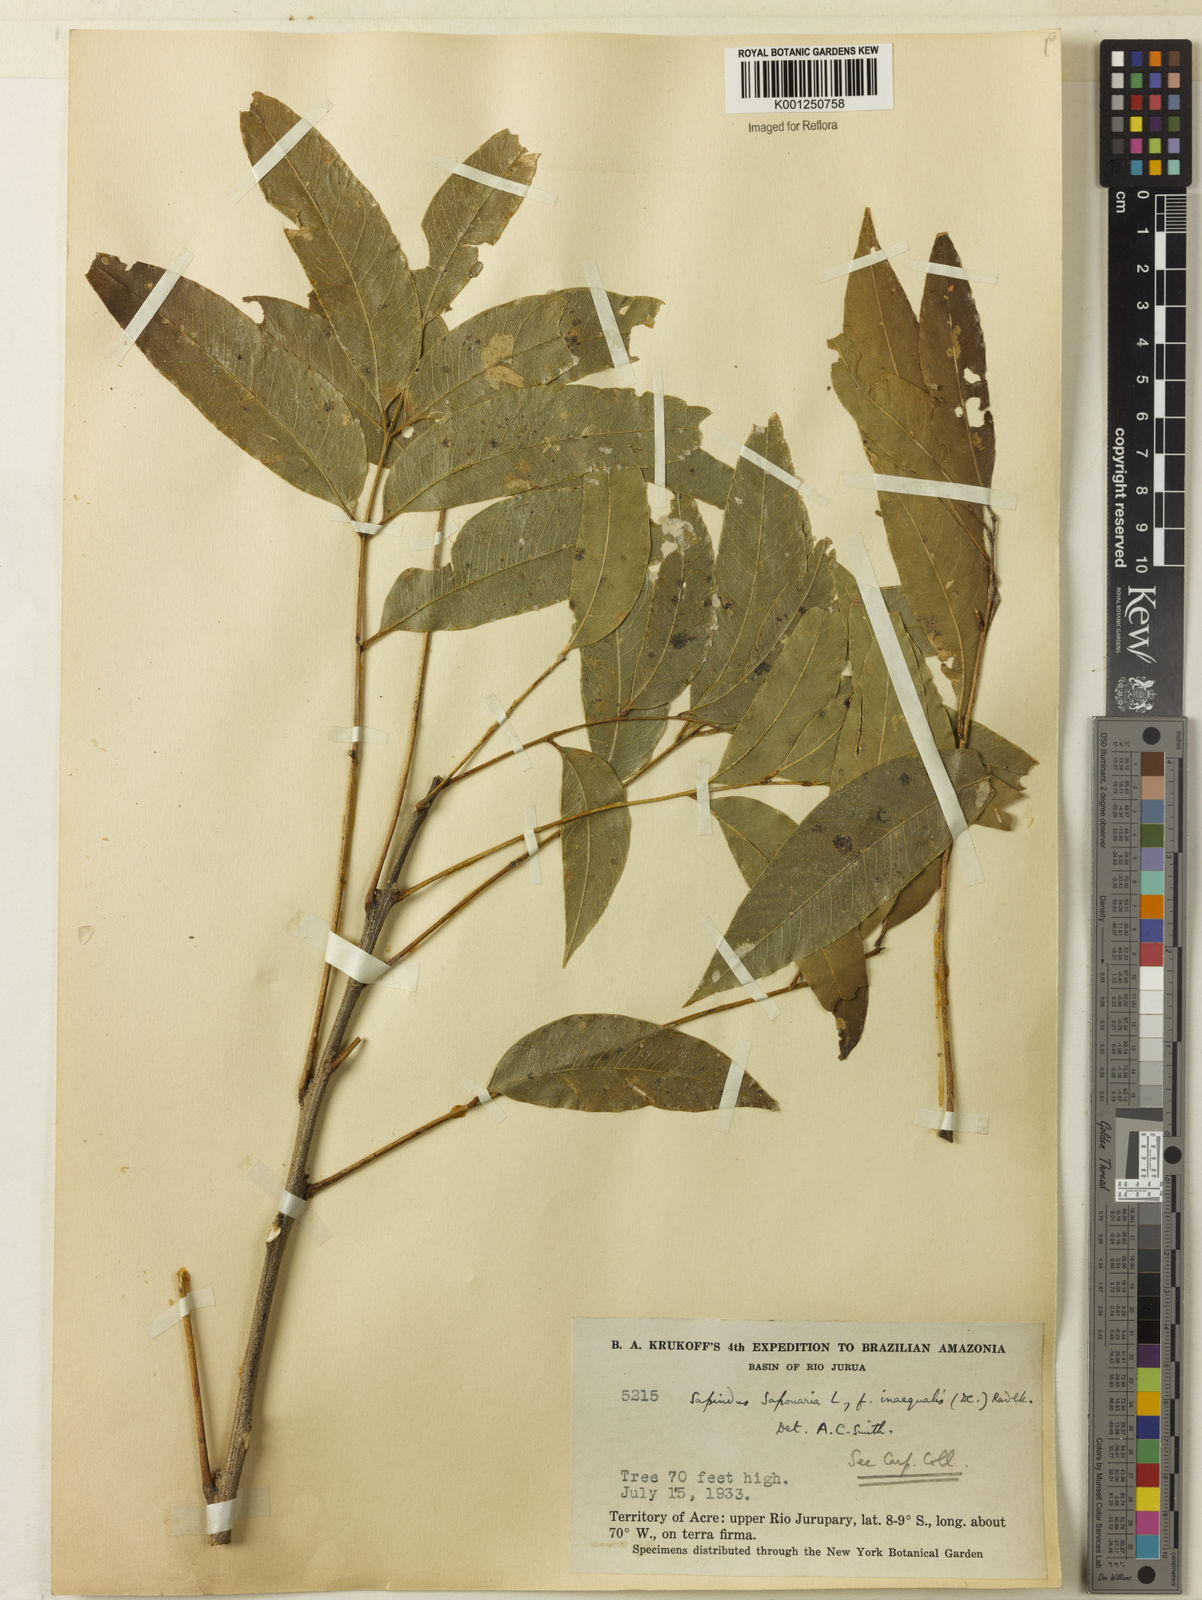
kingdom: Plantae
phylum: Tracheophyta
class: Magnoliopsida
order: Sapindales
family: Sapindaceae
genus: Sapindus
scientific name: Sapindus
